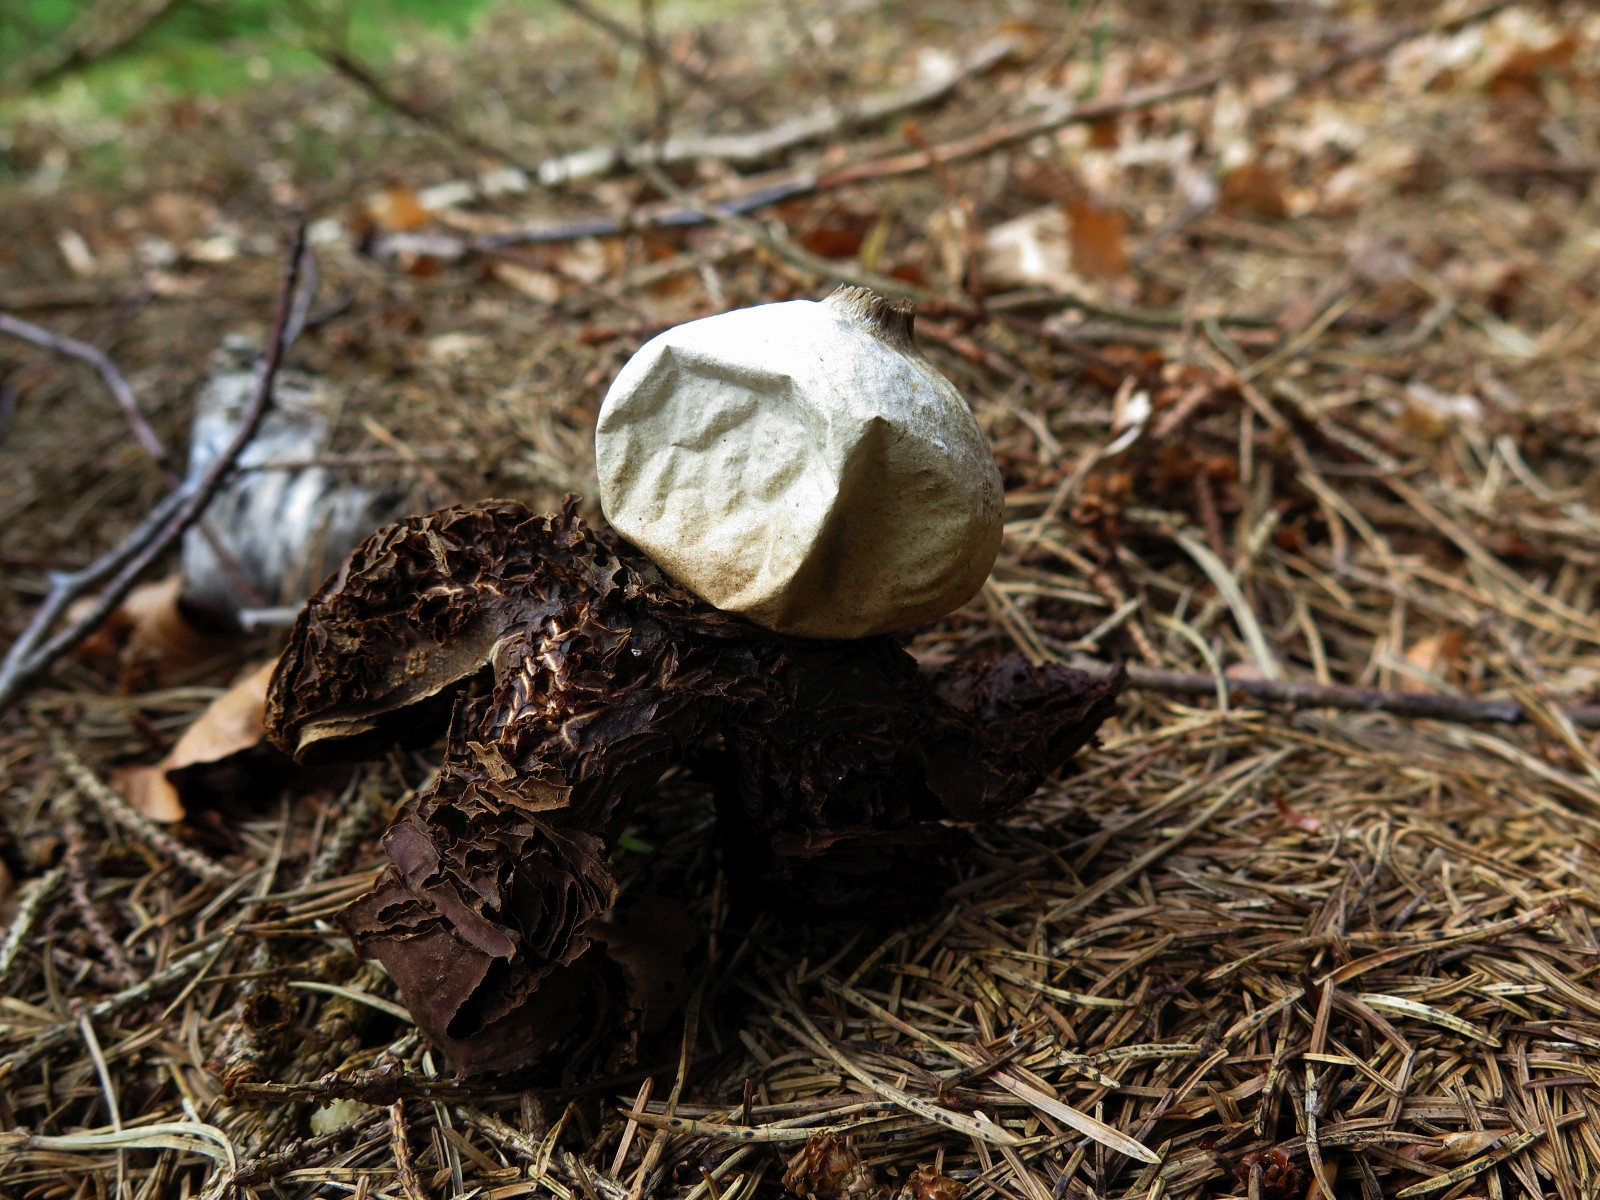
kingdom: Fungi
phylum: Basidiomycota
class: Agaricomycetes
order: Geastrales
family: Geastraceae
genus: Geastrum
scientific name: Geastrum michelianum
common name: kødet stjernebold
